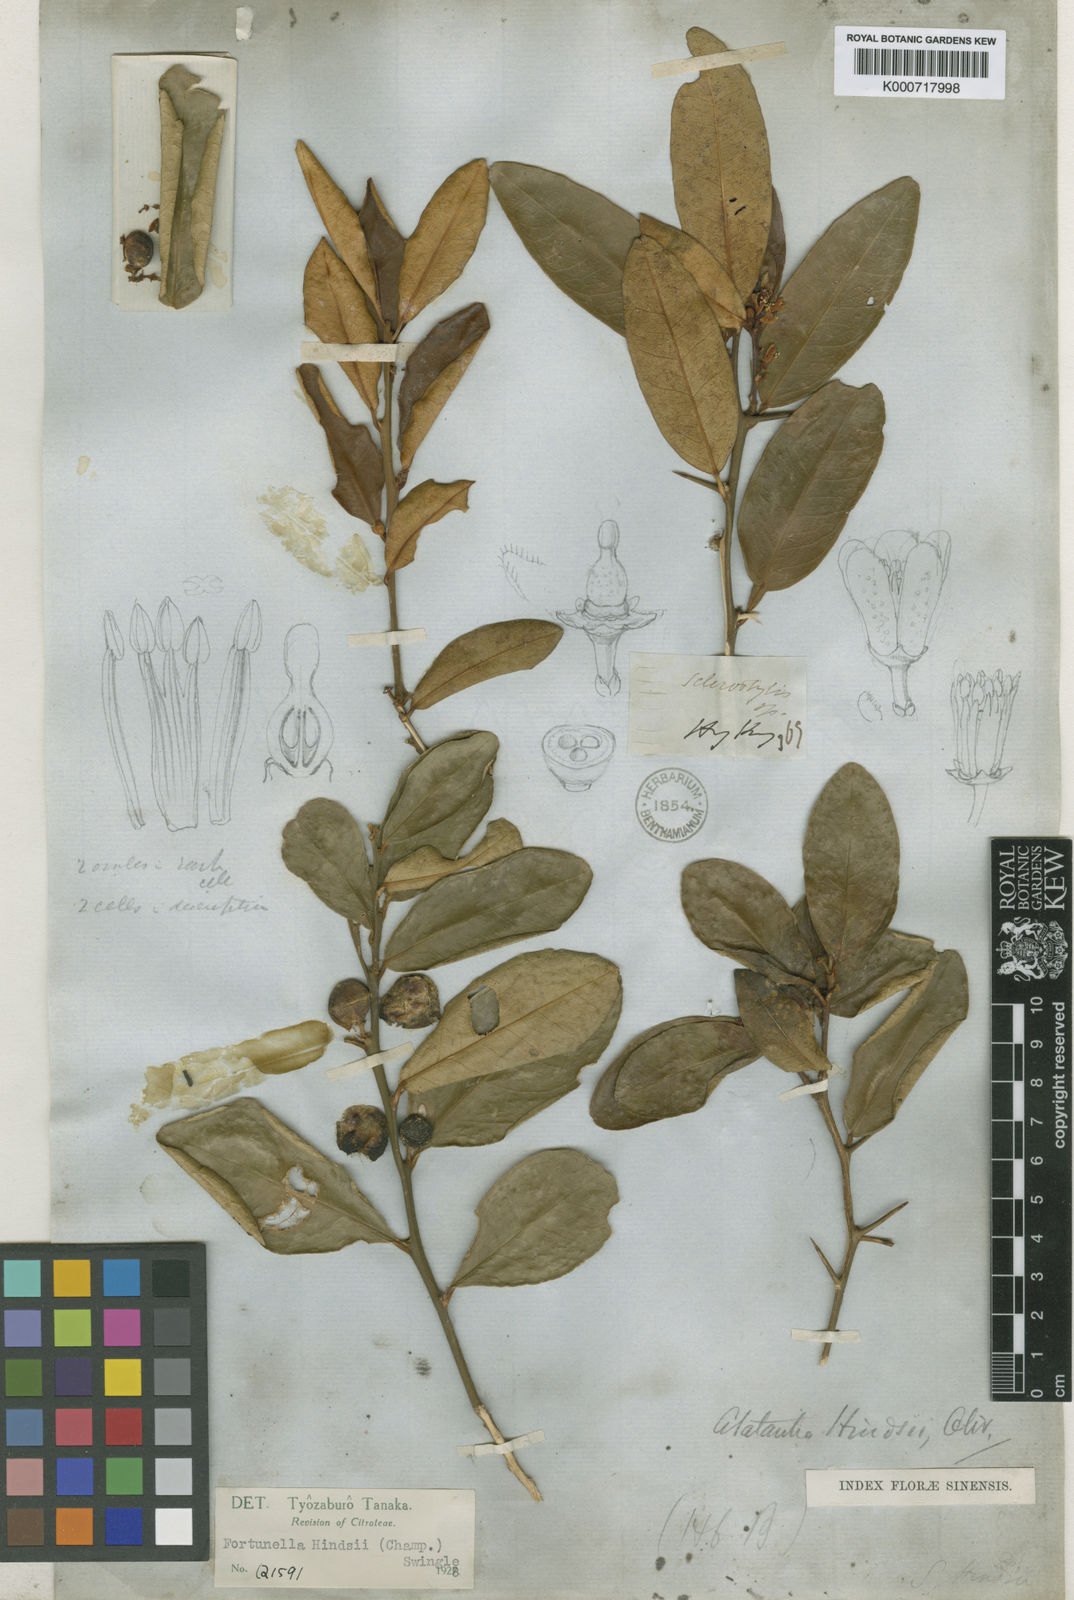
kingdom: Plantae
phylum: Tracheophyta
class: Magnoliopsida
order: Sapindales
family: Rutaceae
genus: Citrus
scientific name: Citrus japonica
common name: Kumquat
